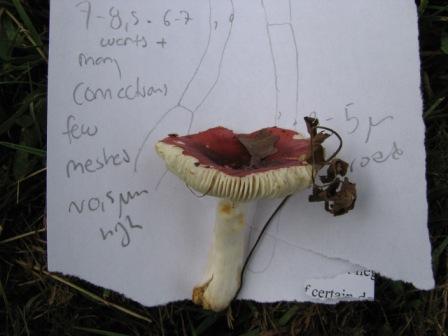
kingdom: Fungi
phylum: Basidiomycota
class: Agaricomycetes
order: Russulales
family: Russulaceae
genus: Russula
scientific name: Russula puellula
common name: gulnende skørhat
